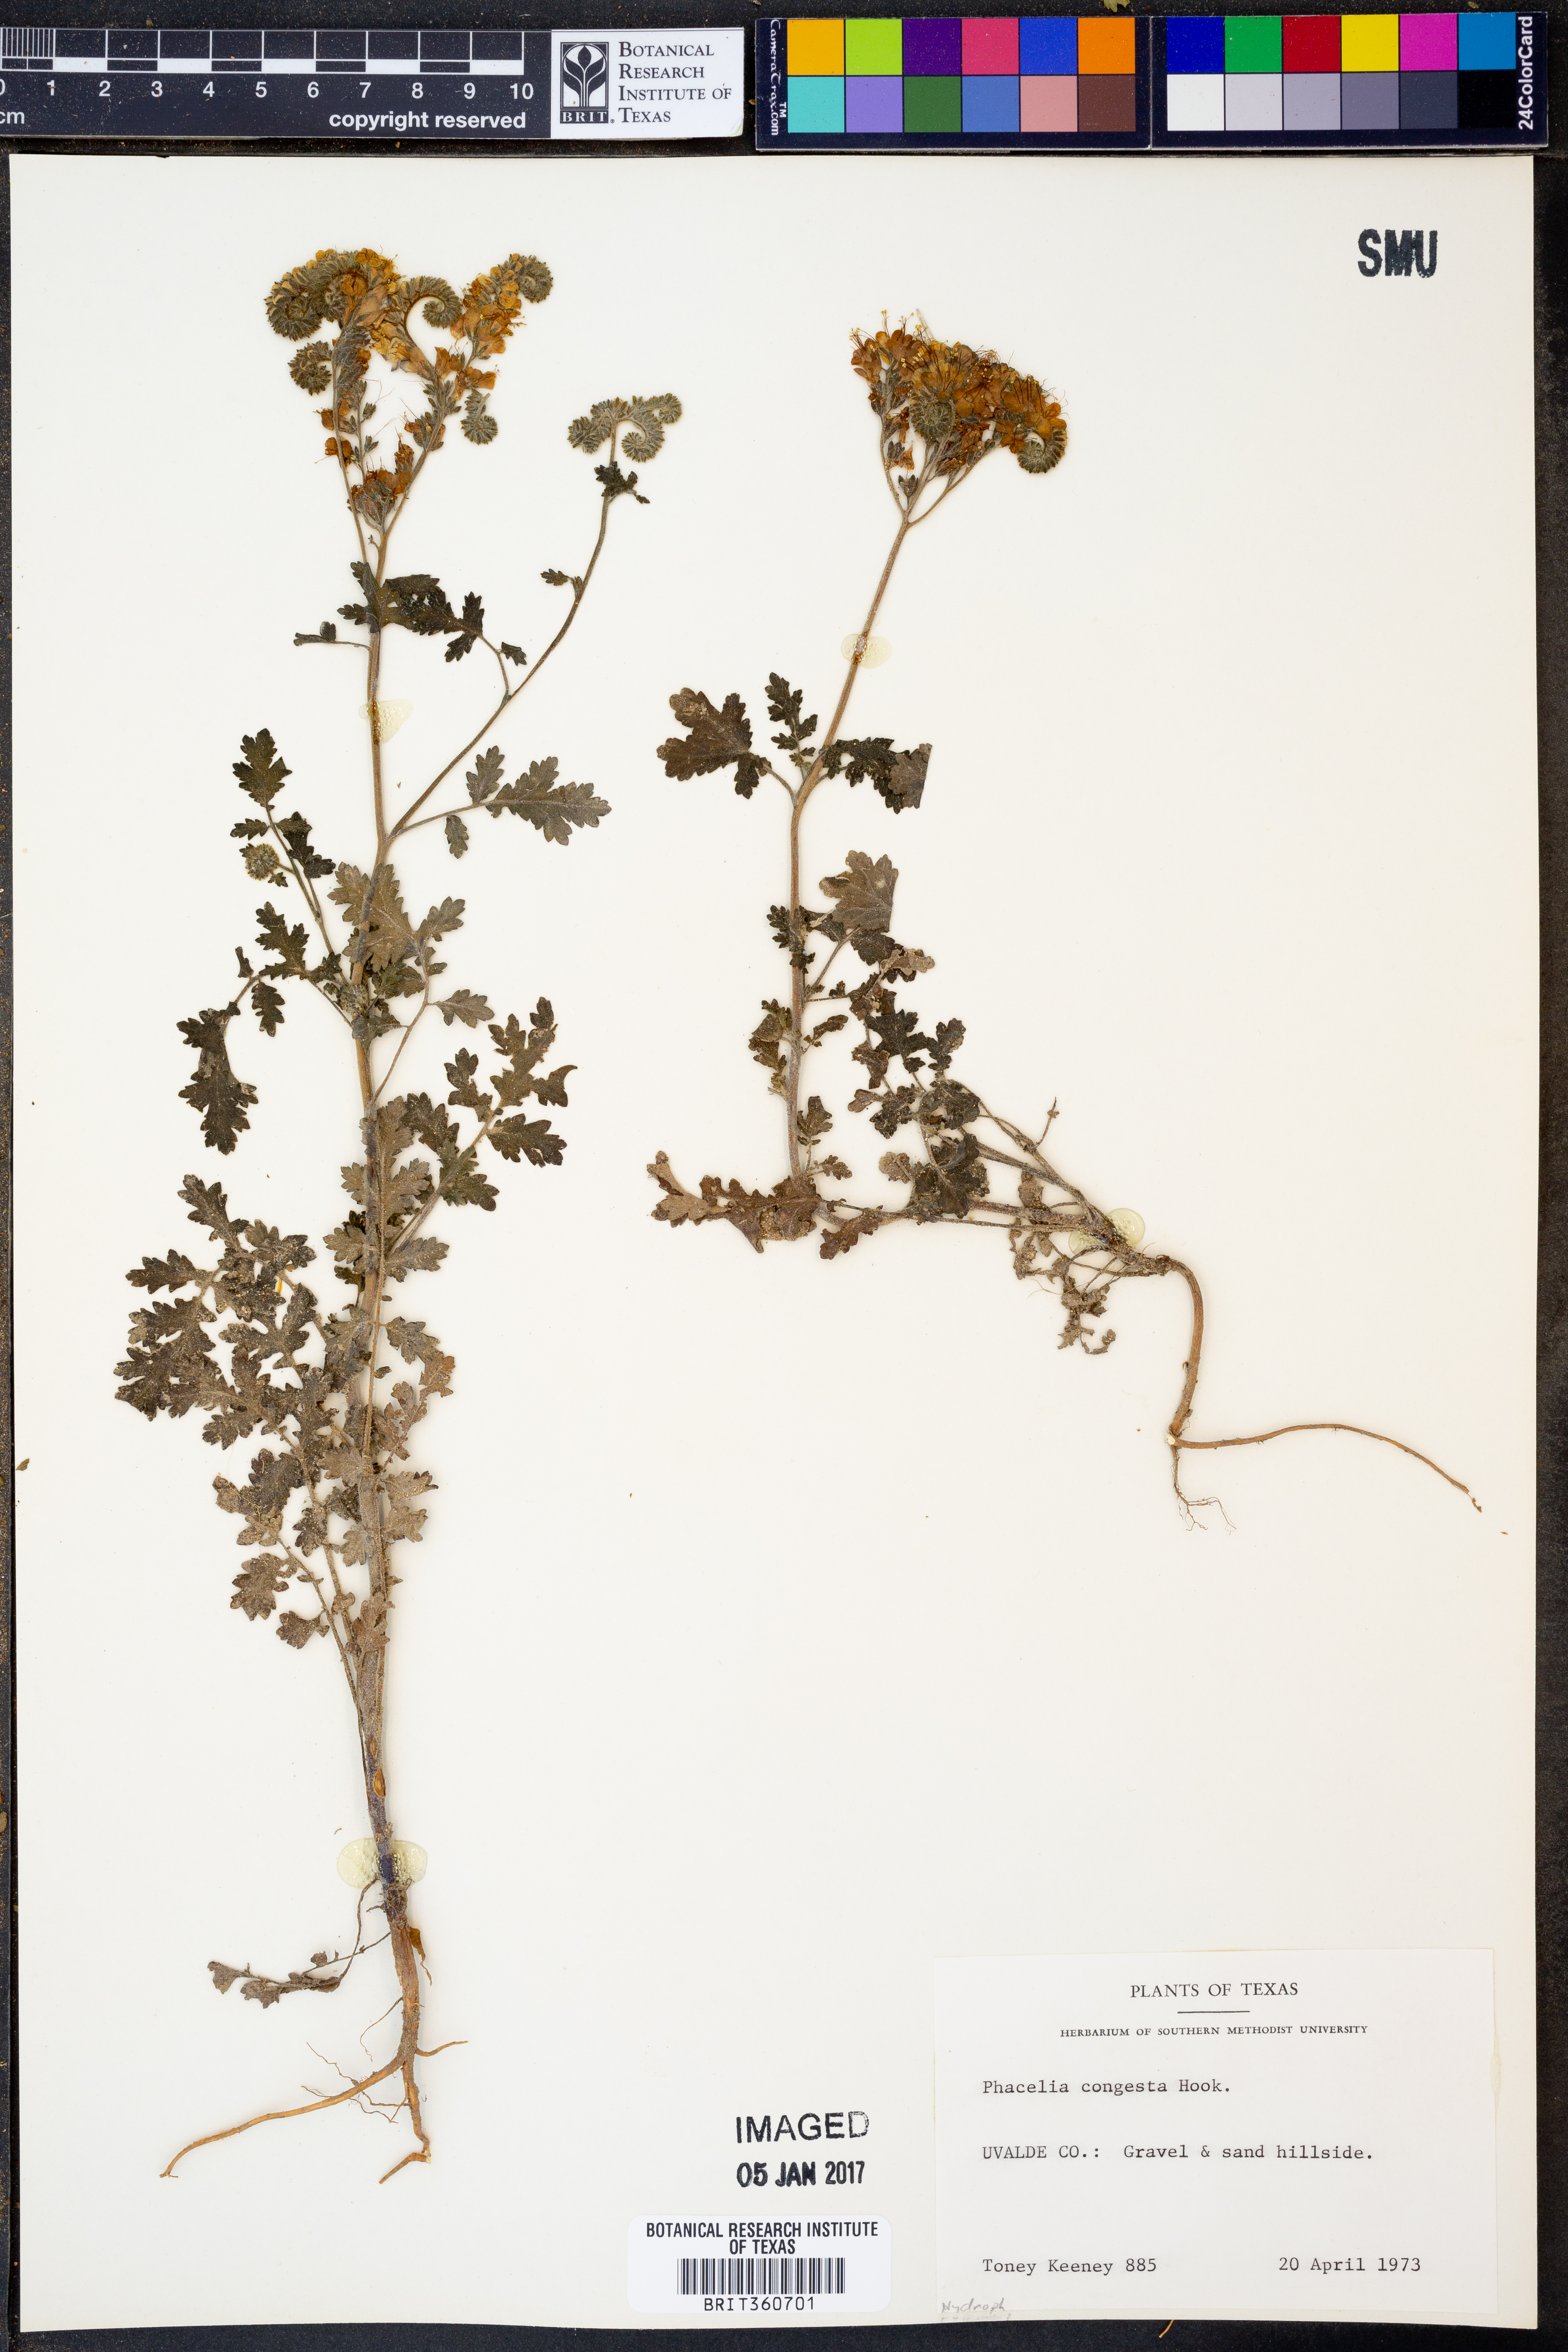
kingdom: Plantae
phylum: Tracheophyta
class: Magnoliopsida
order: Boraginales
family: Hydrophyllaceae
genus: Phacelia
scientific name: Phacelia congesta
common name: Blue curls
